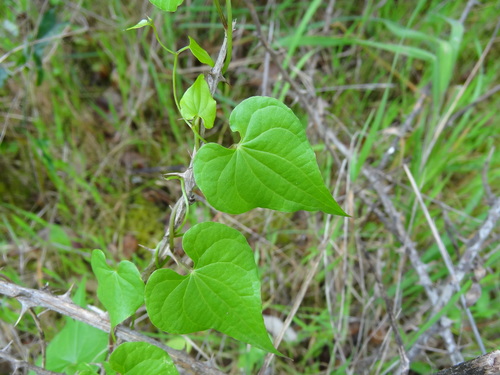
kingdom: Plantae
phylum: Tracheophyta
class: Liliopsida
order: Dioscoreales
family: Dioscoreaceae
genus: Dioscorea
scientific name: Dioscorea communis
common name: Black-bindweed
